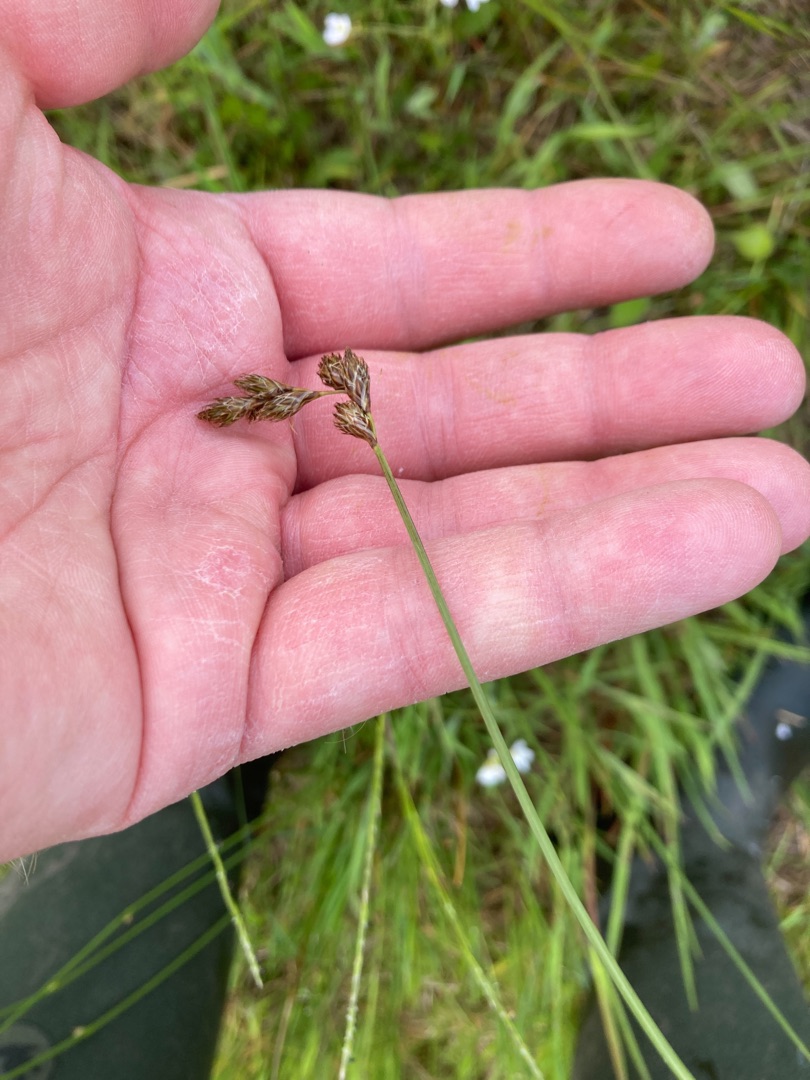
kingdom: Plantae
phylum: Tracheophyta
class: Liliopsida
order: Poales
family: Cyperaceae
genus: Carex
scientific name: Carex leporina
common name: Hare-star
